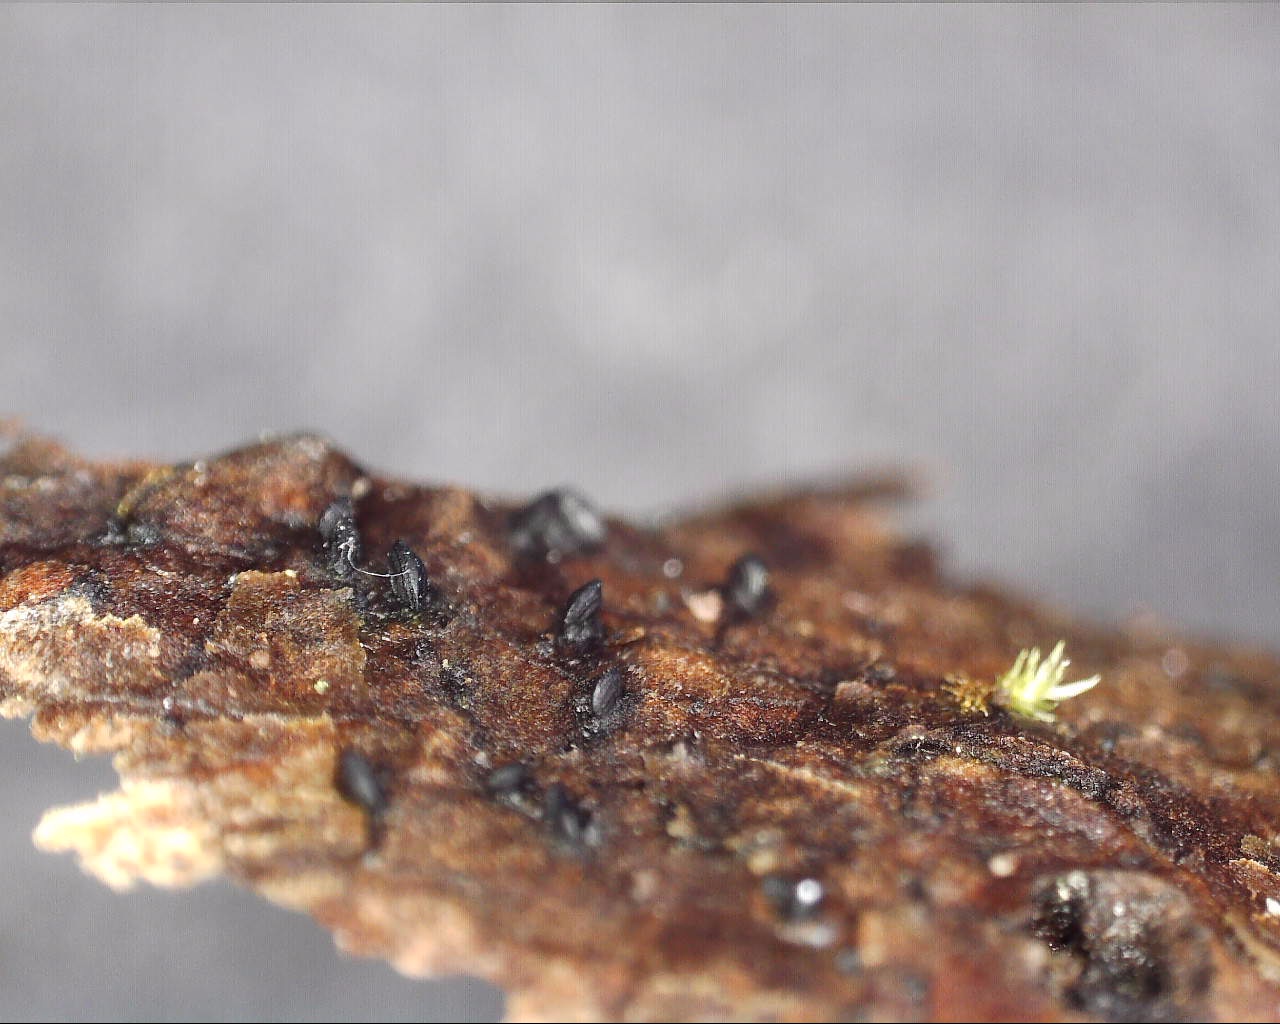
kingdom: Fungi
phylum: Ascomycota
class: Dothideomycetes
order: Mytilinidiales
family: Mytilinidiaceae
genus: Mytilinidion
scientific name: Mytilinidion rhenanum
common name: almindelig kulmusling
